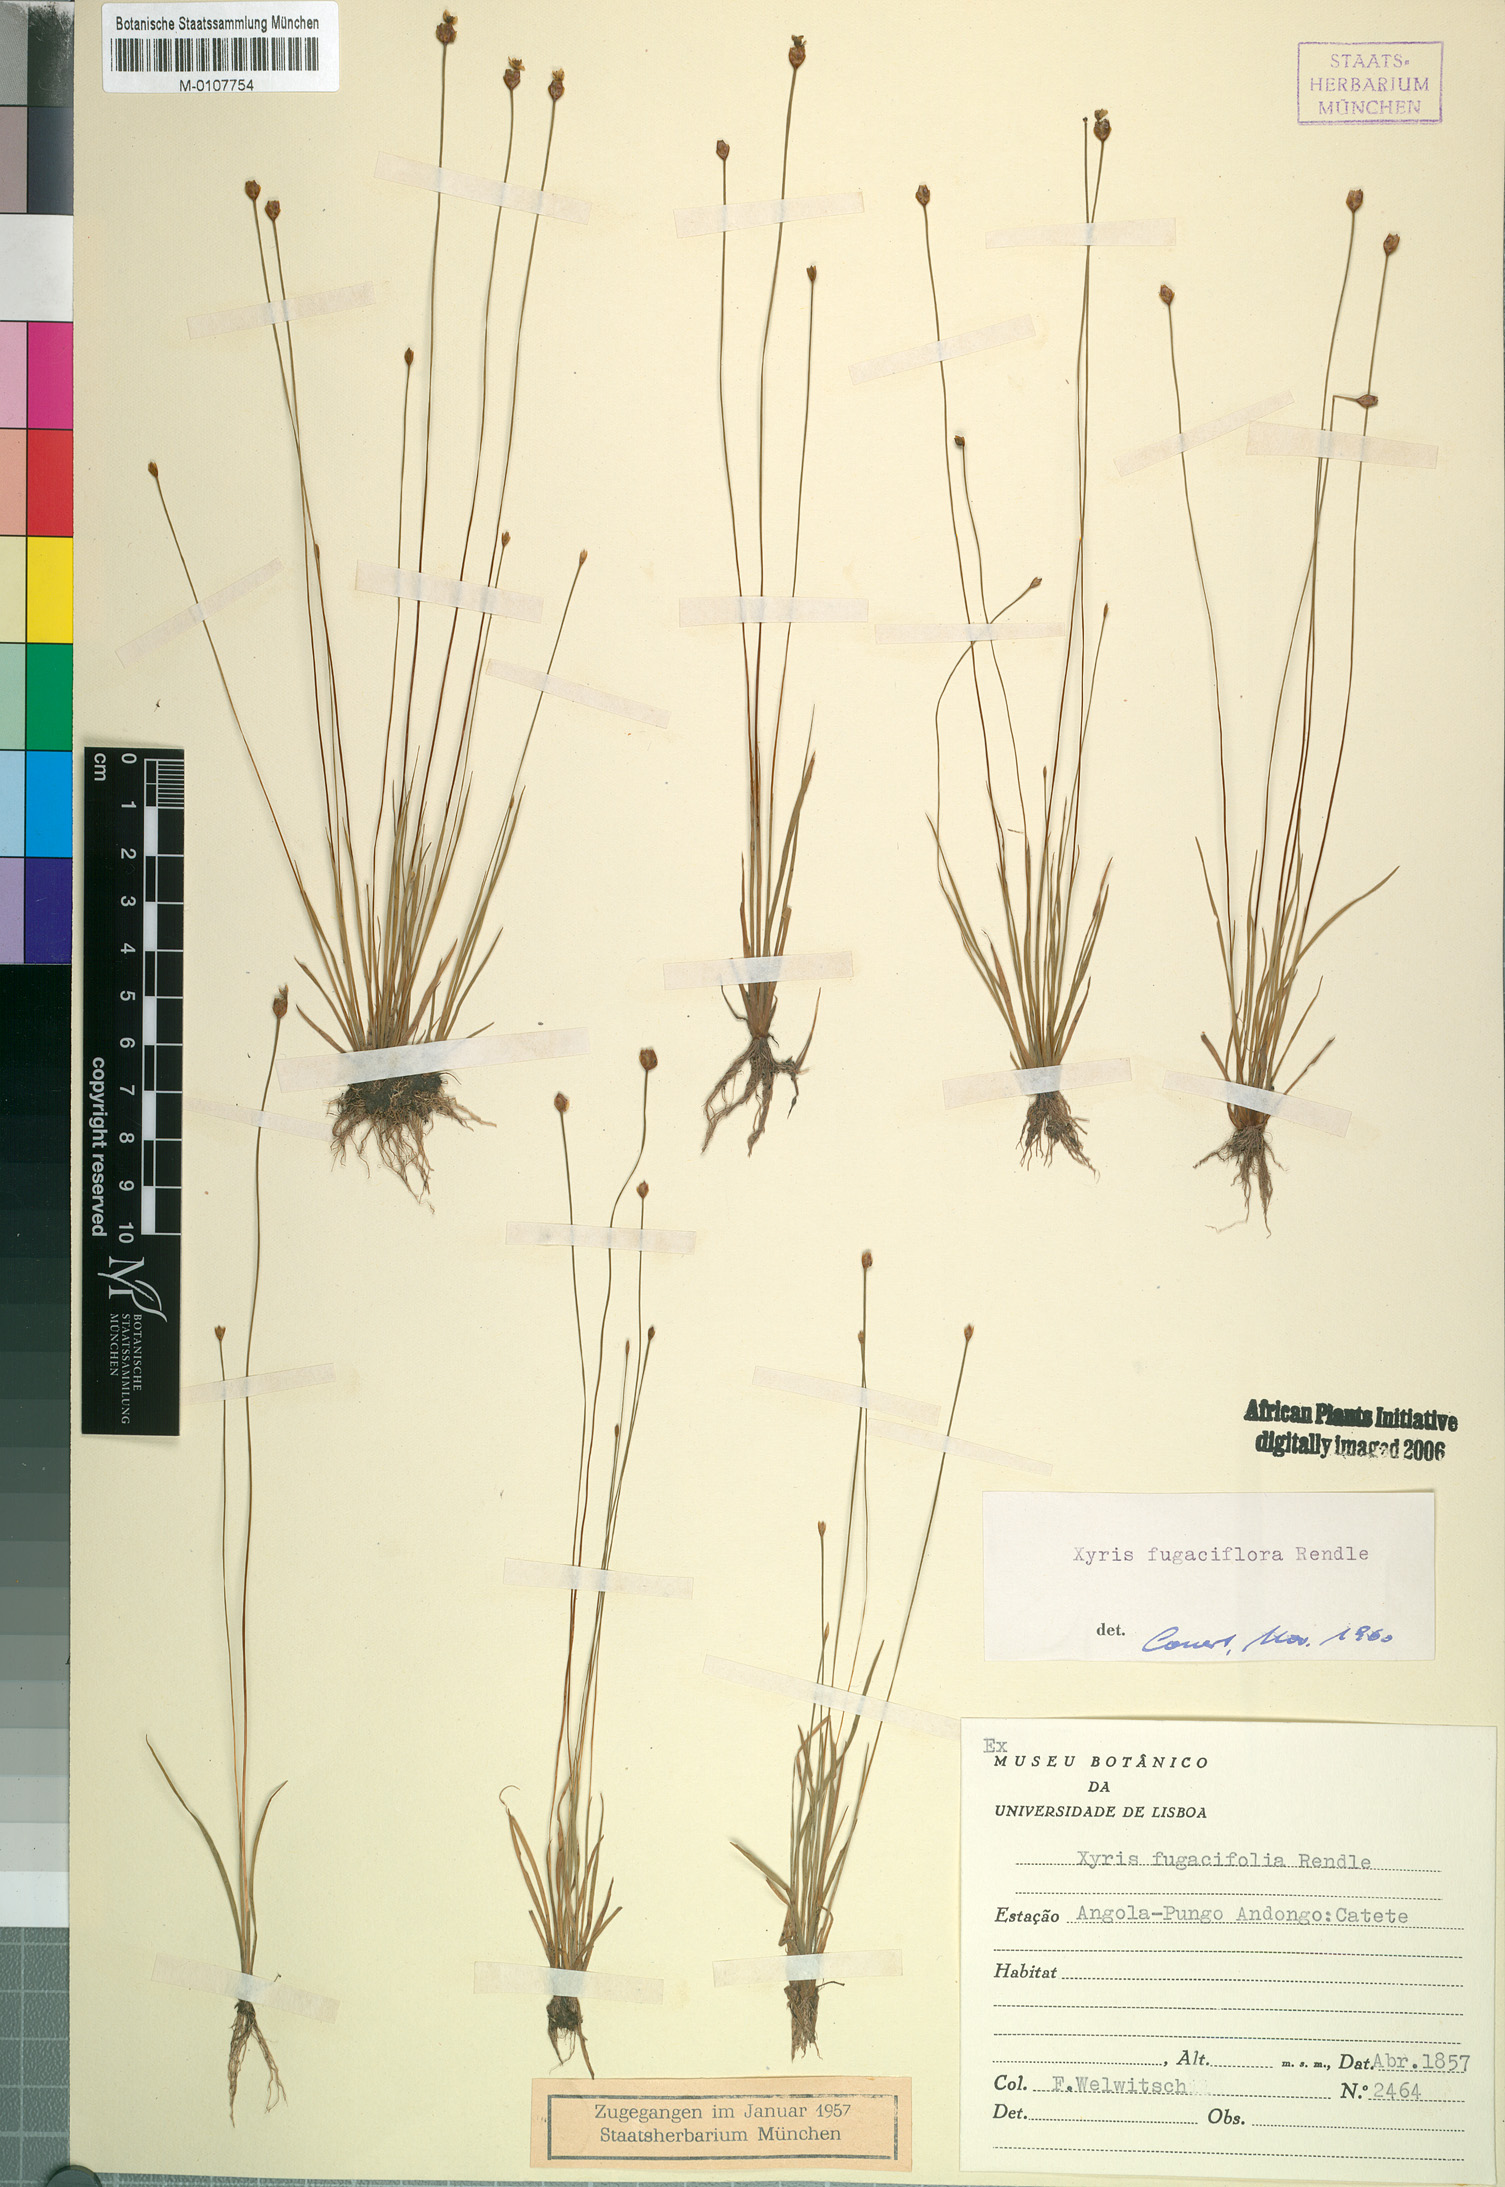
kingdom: Plantae
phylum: Tracheophyta
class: Liliopsida
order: Poales
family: Xyridaceae
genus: Xyris
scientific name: Xyris fugaciflora
